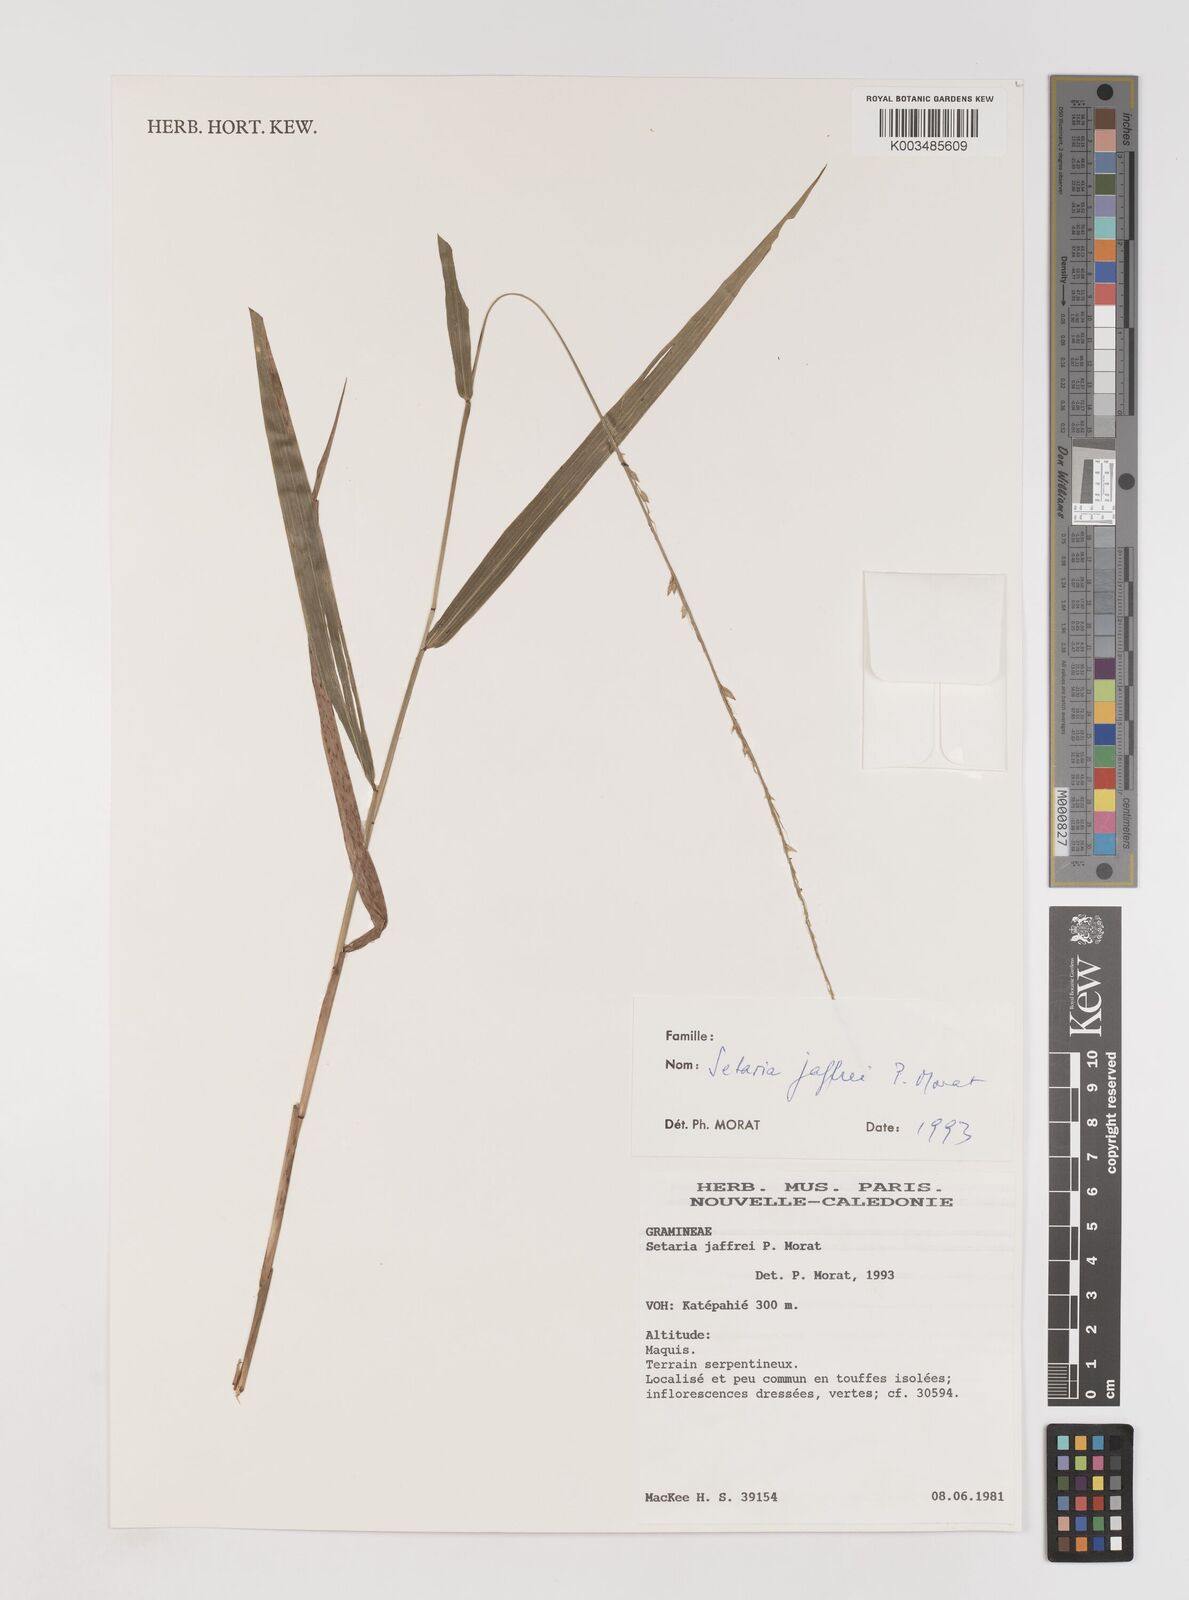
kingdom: Plantae
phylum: Tracheophyta
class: Liliopsida
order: Poales
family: Poaceae
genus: Setaria
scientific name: Setaria jaffrei
